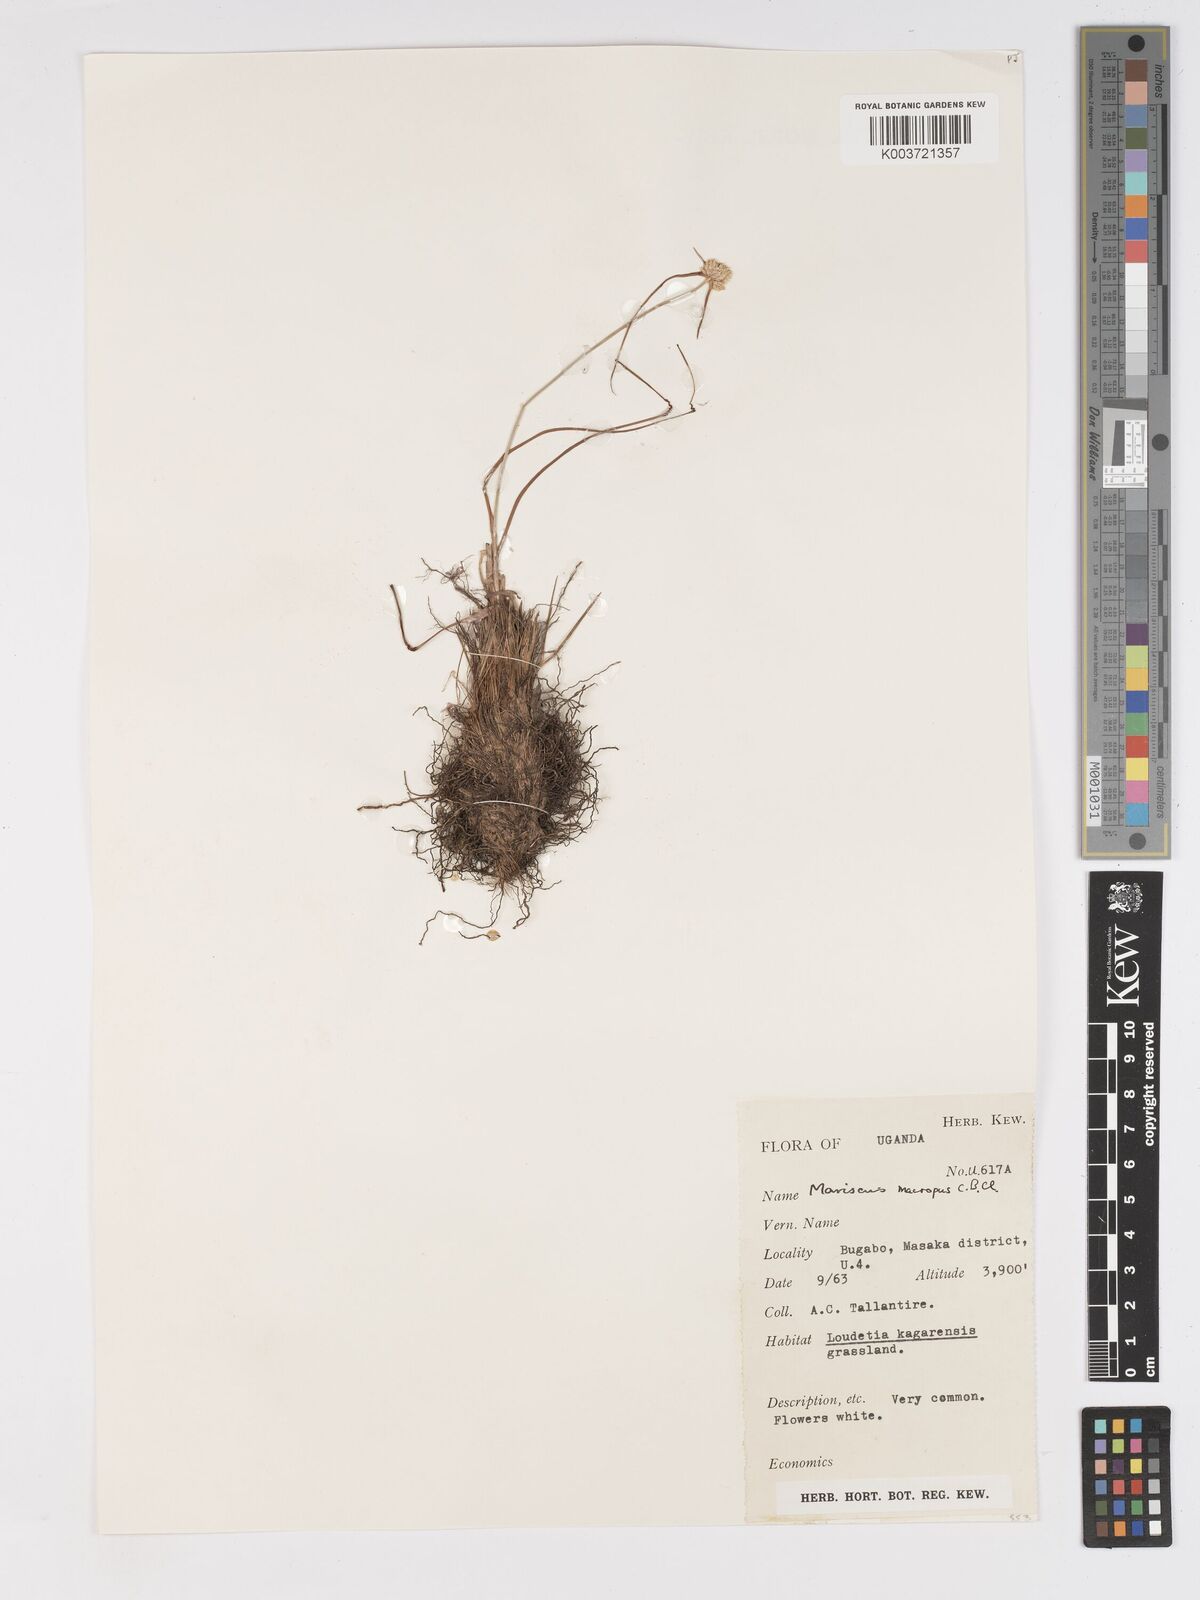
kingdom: Plantae
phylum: Tracheophyta
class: Liliopsida
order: Poales
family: Cyperaceae
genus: Cyperus
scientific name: Cyperus mollipes
